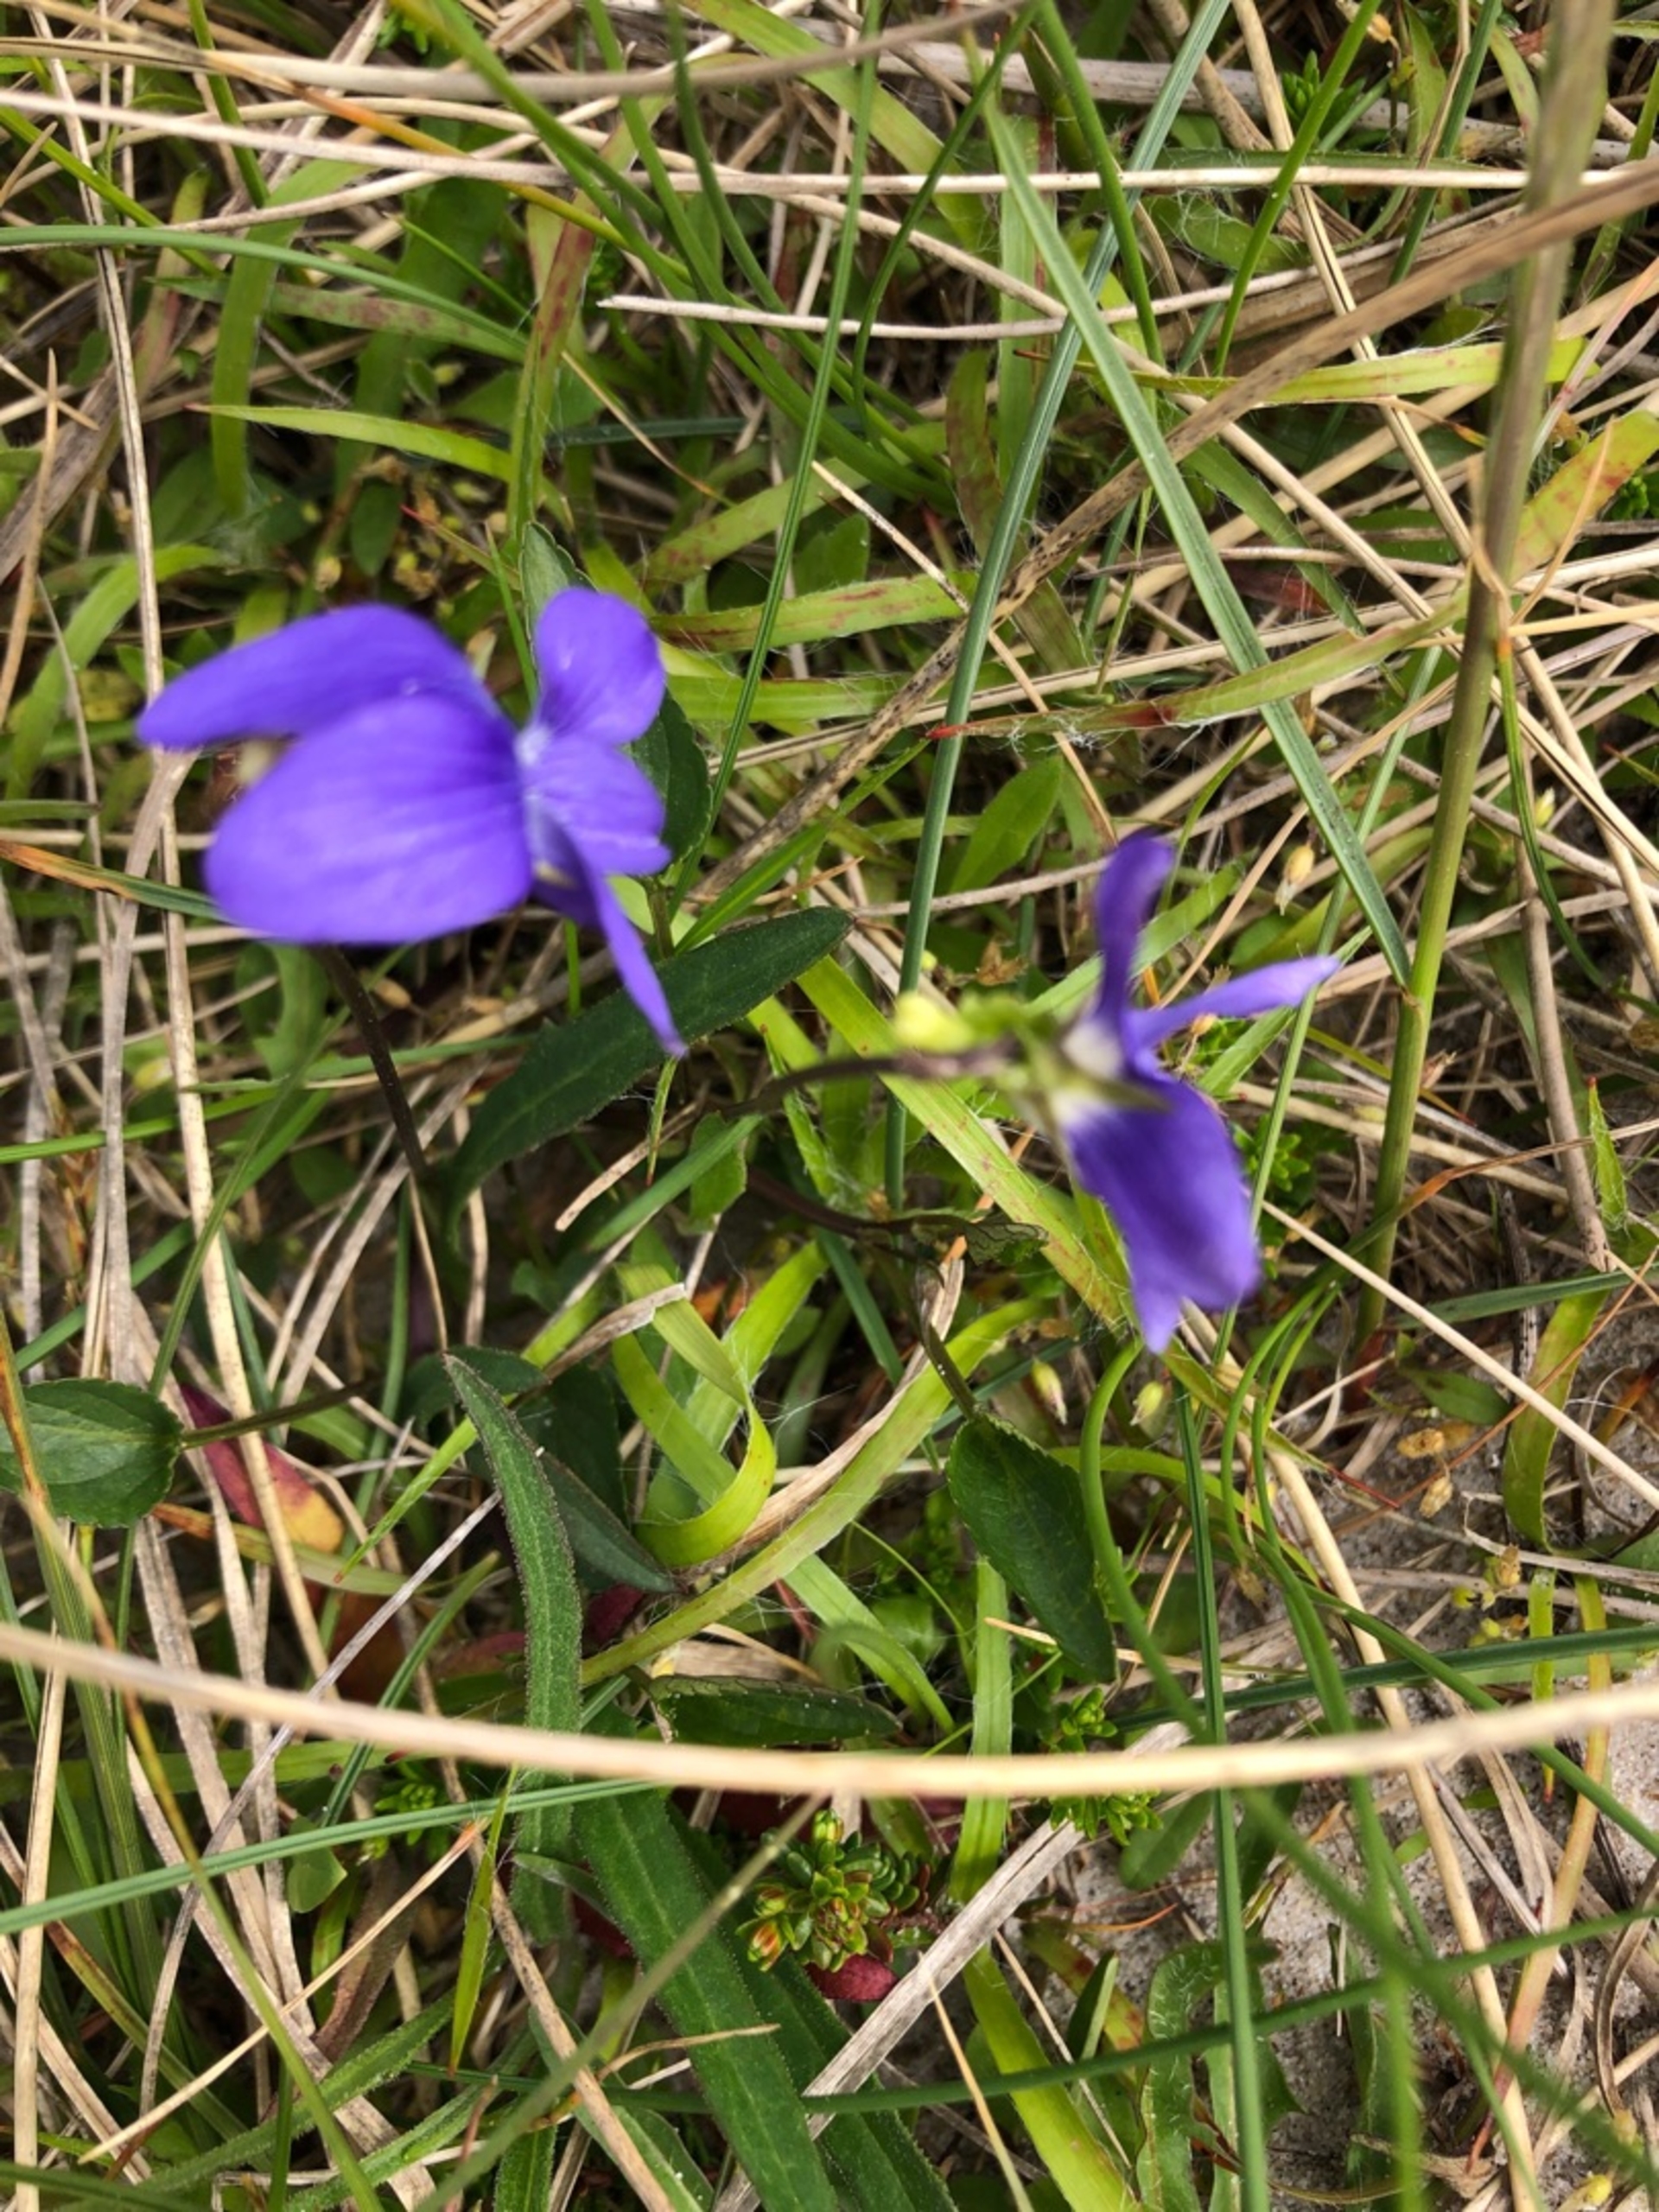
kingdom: Plantae
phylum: Tracheophyta
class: Magnoliopsida
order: Malpighiales
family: Violaceae
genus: Viola
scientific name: Viola canina
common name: Hunde-viol
